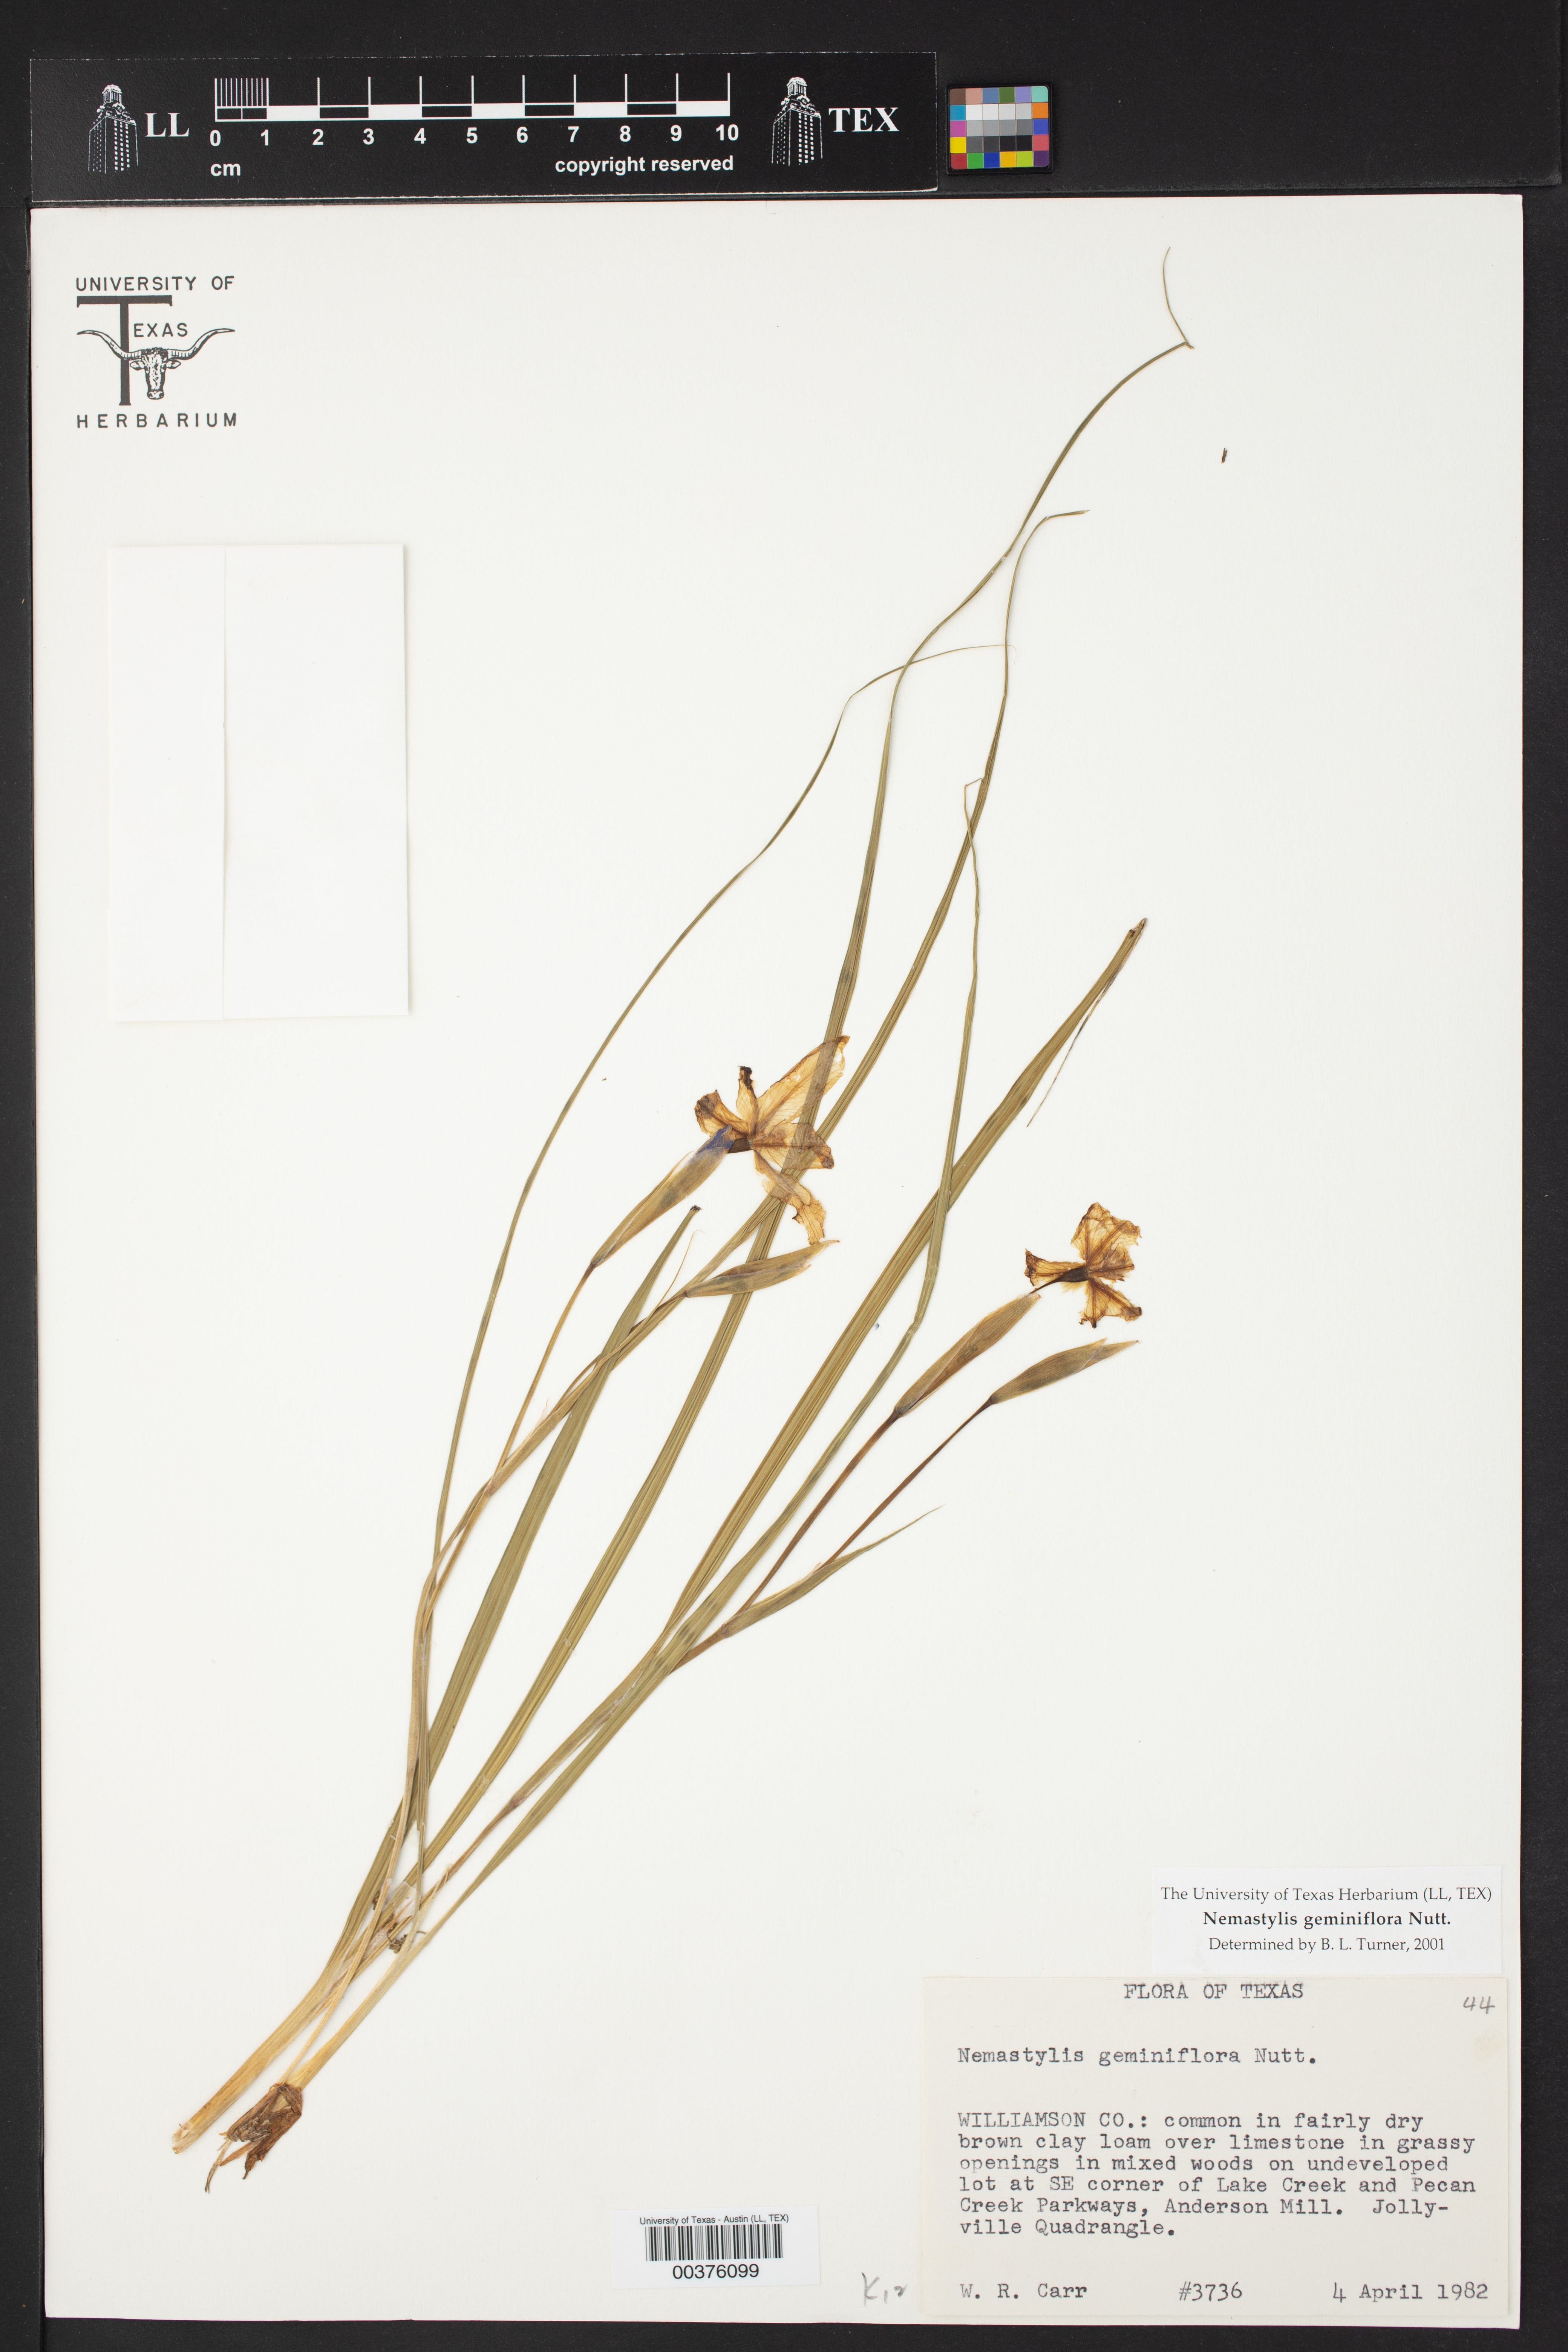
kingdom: Plantae
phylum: Tracheophyta
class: Liliopsida
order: Asparagales
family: Iridaceae
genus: Nemastylis
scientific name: Nemastylis geminiflora
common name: Prairie celestial
